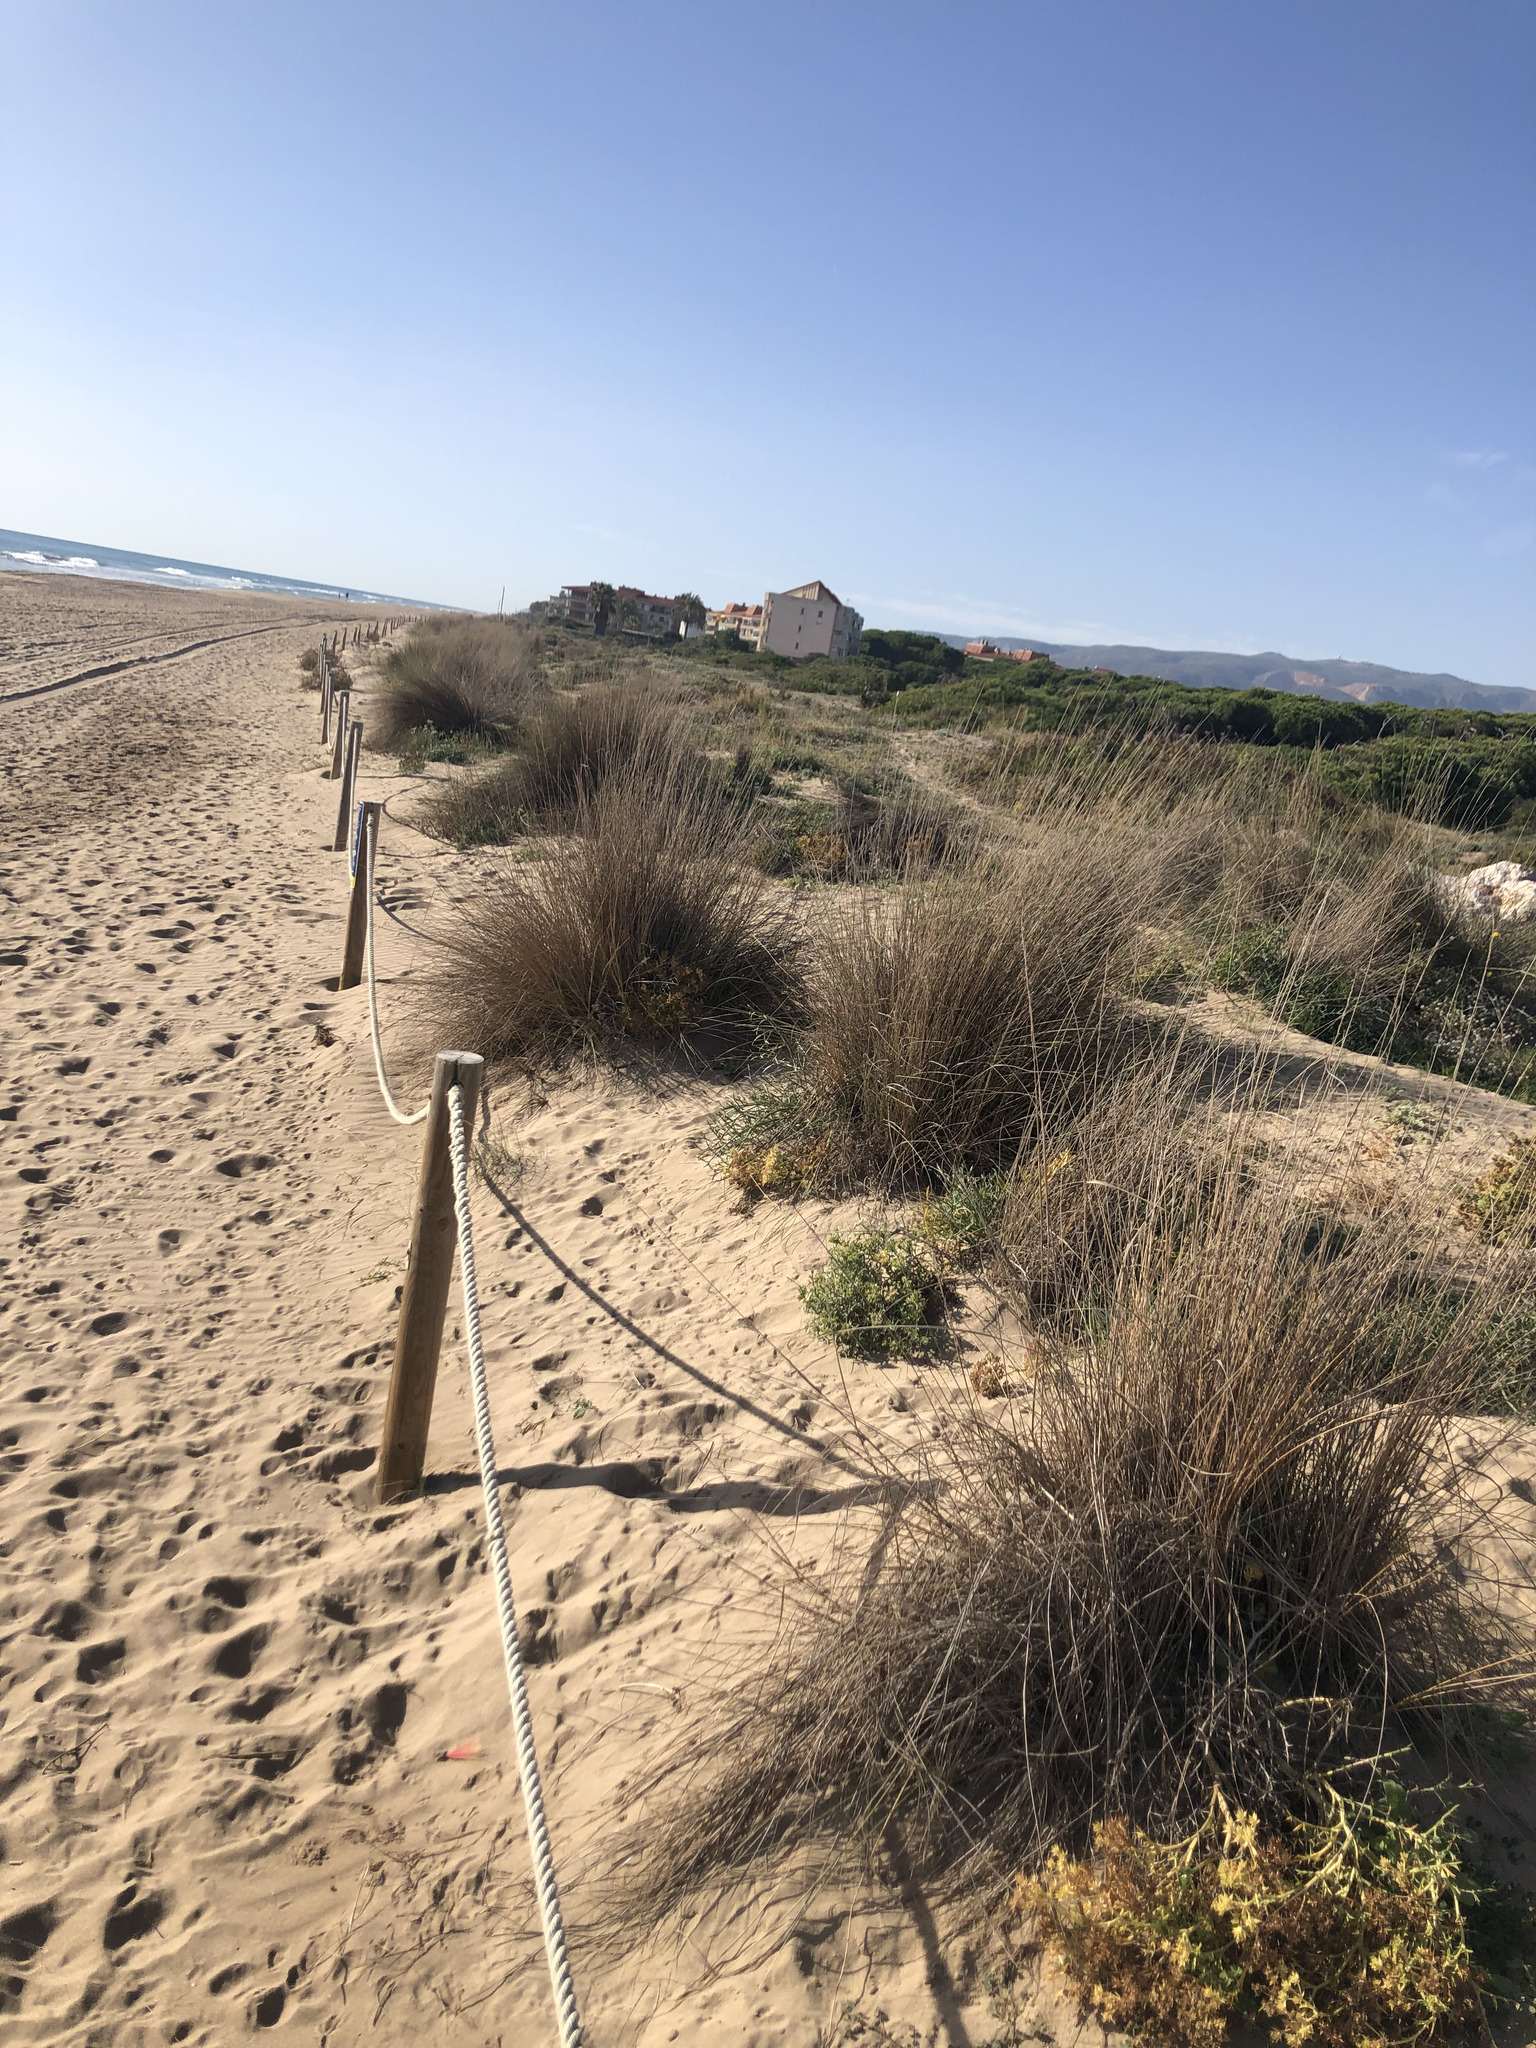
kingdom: Plantae
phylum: Tracheophyta
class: Liliopsida
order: Poales
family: Poaceae
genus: Calamagrostis
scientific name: Calamagrostis arenaria
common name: European beachgrass
